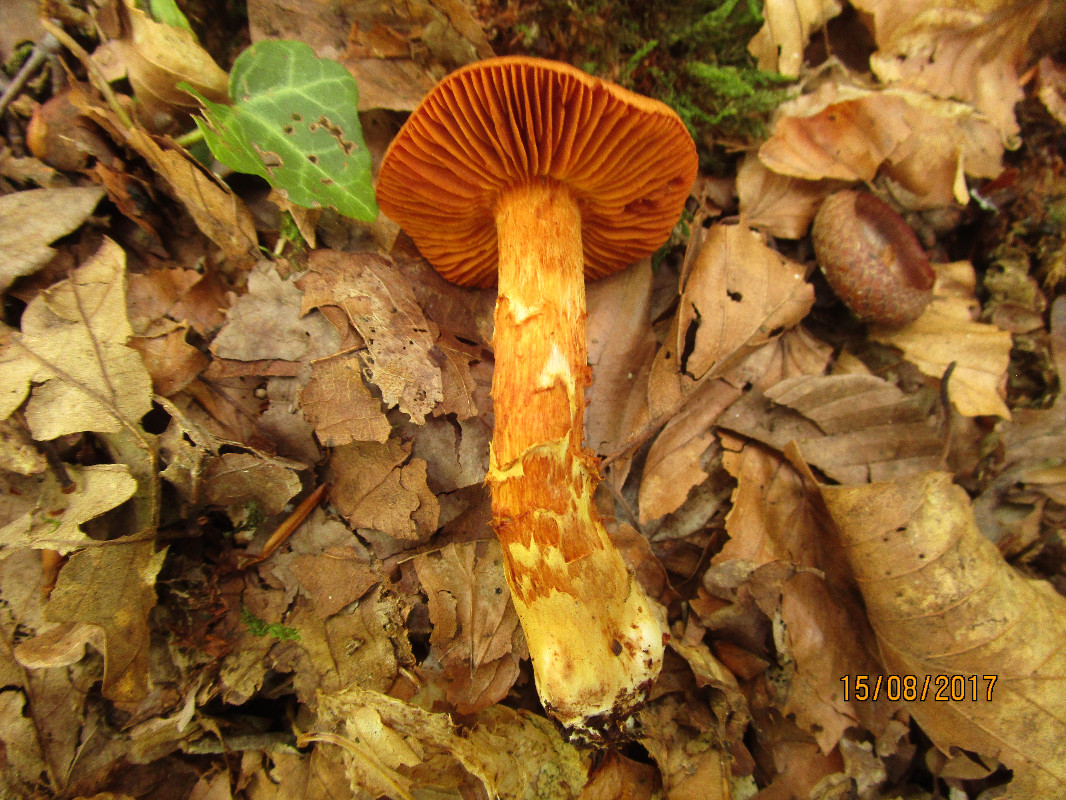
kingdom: Fungi
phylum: Basidiomycota
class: Agaricomycetes
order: Agaricales
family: Cortinariaceae
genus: Cortinarius
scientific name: Cortinarius rubellus
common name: puklet gift-slørhat
